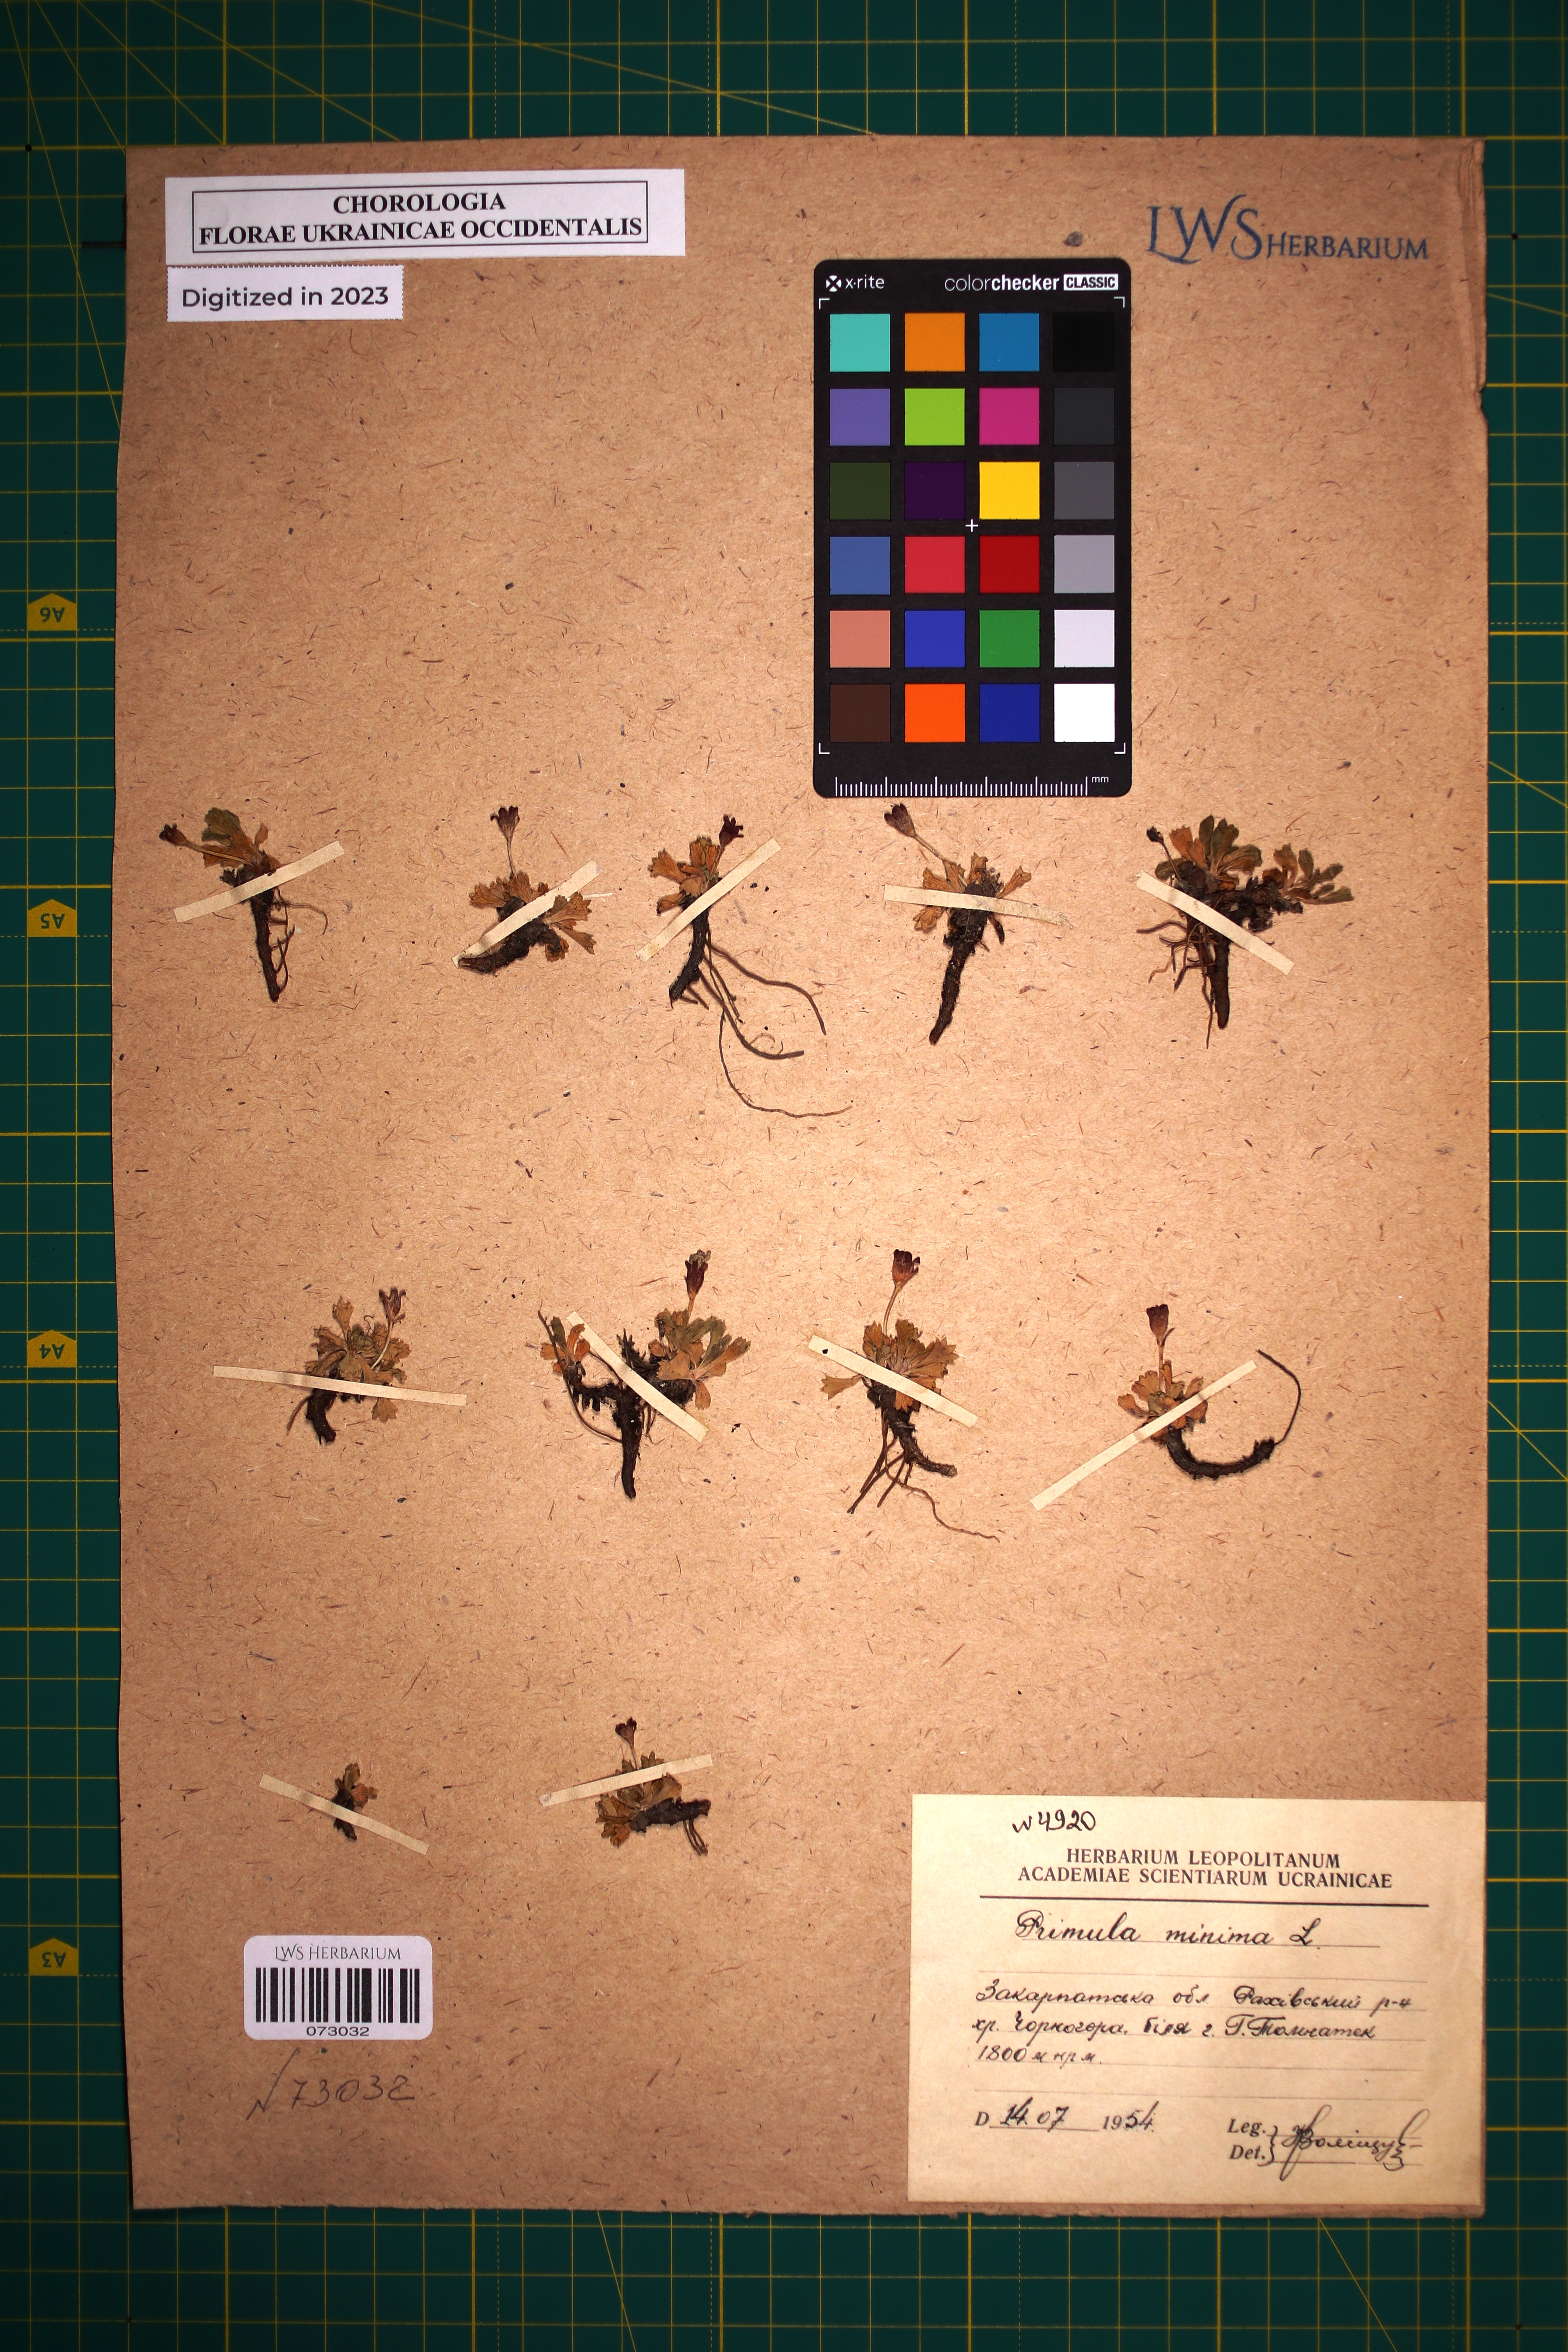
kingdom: Plantae
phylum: Tracheophyta
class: Magnoliopsida
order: Ericales
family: Primulaceae
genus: Primula
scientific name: Primula minima
